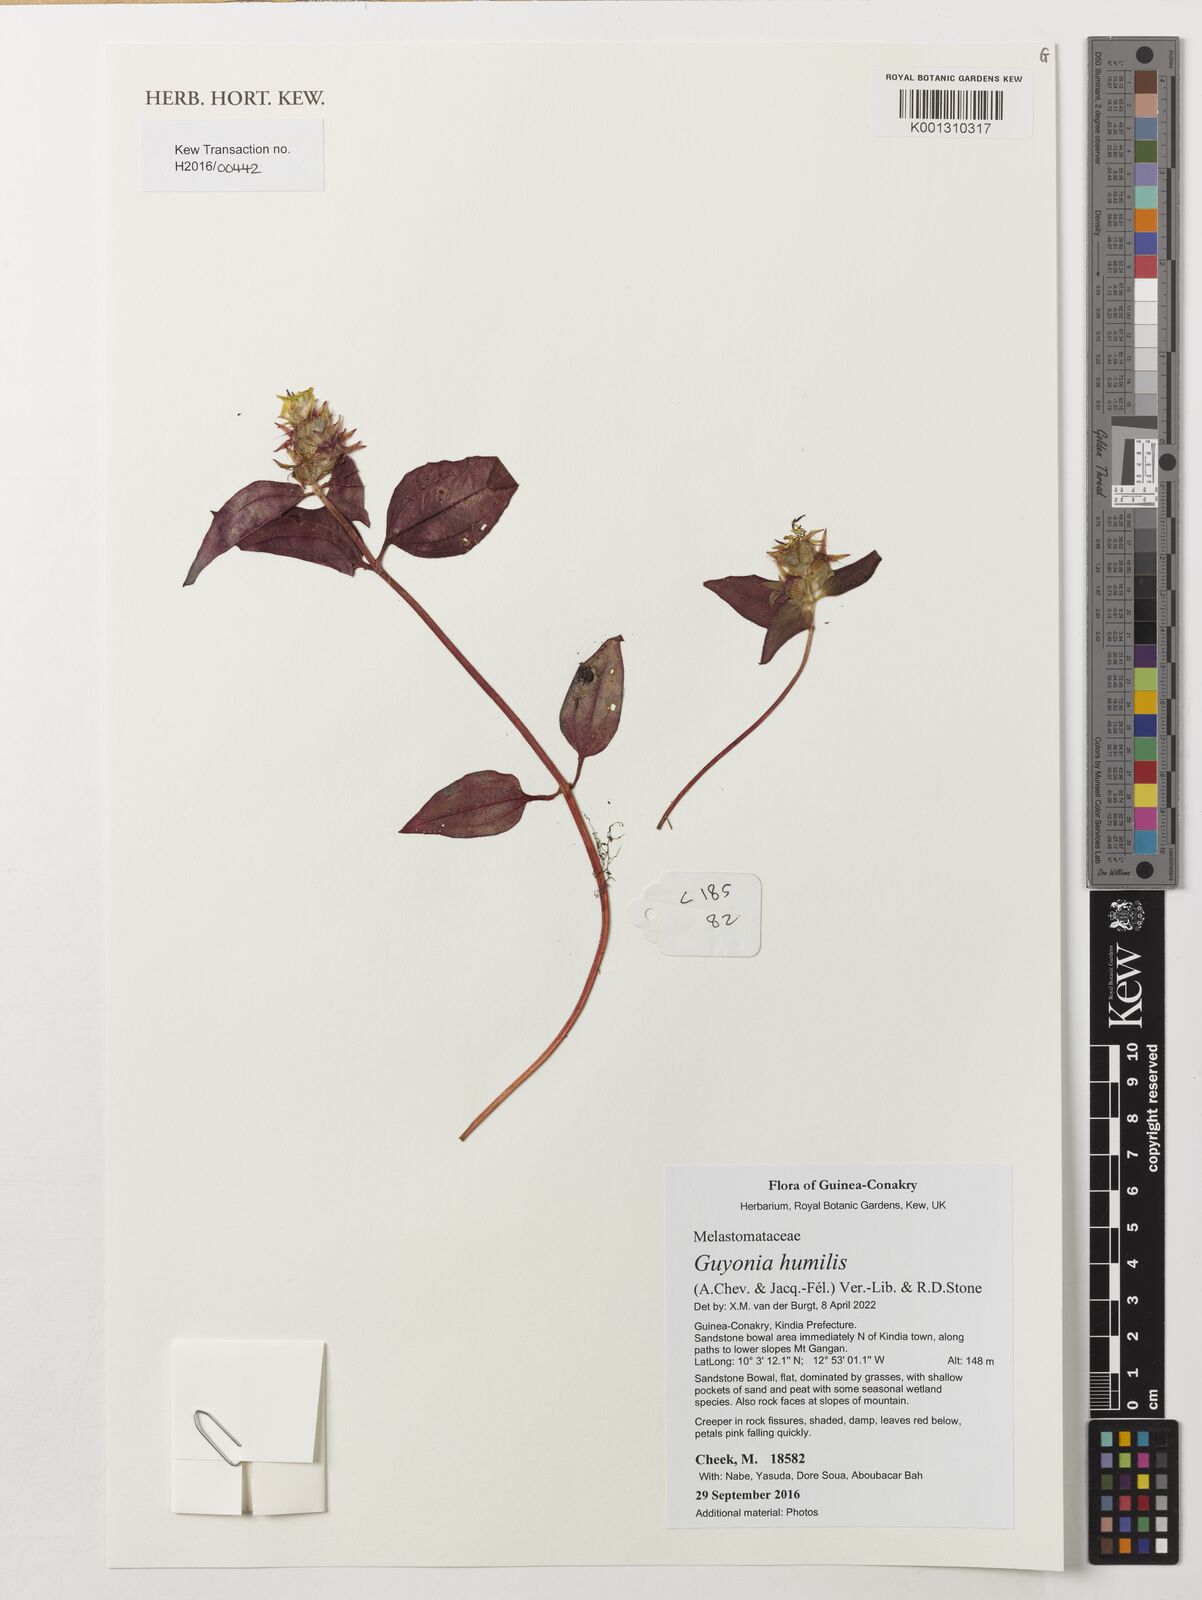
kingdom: Plantae
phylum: Tracheophyta
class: Magnoliopsida
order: Myrtales
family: Melastomataceae
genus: Guyonia
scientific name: Guyonia humilis
